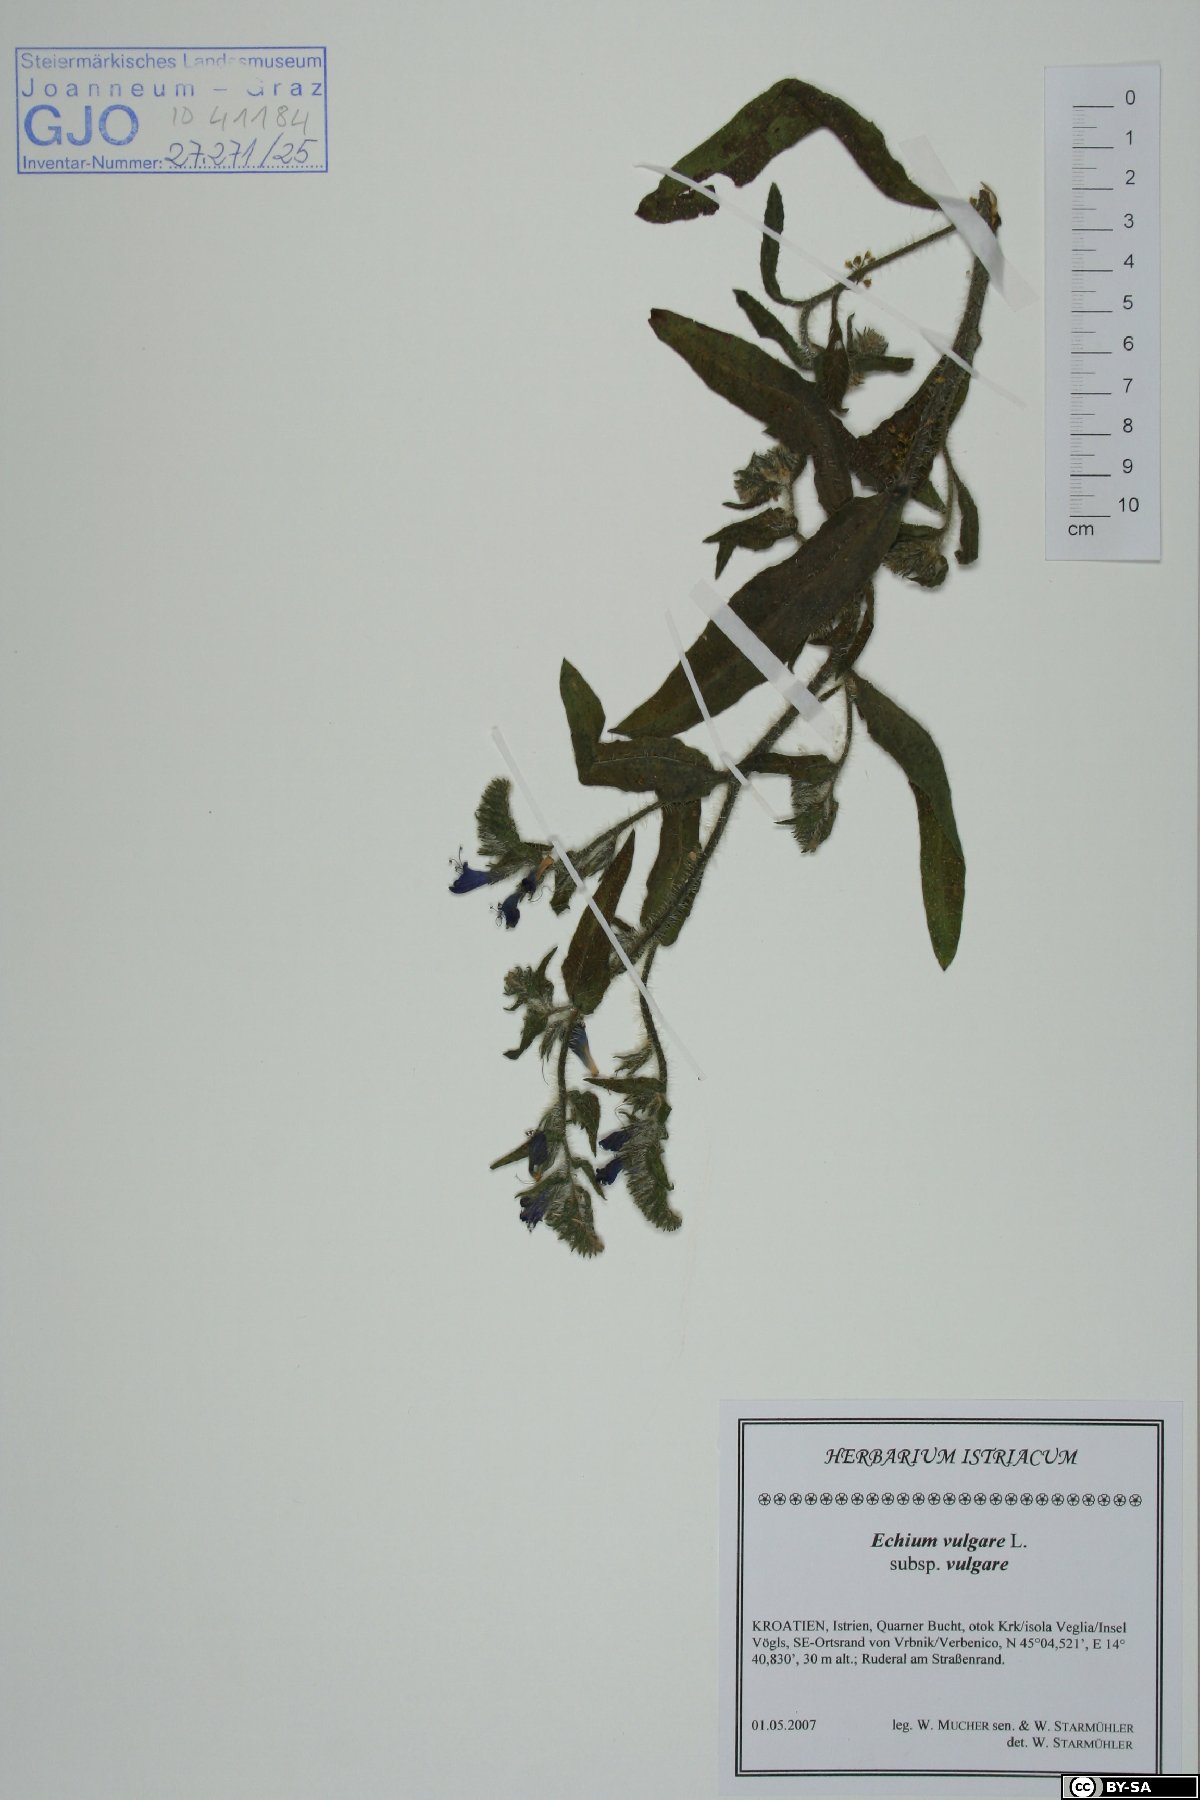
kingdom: Plantae
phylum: Tracheophyta
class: Magnoliopsida
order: Boraginales
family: Boraginaceae
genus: Echium
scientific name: Echium vulgare
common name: Common viper's bugloss
